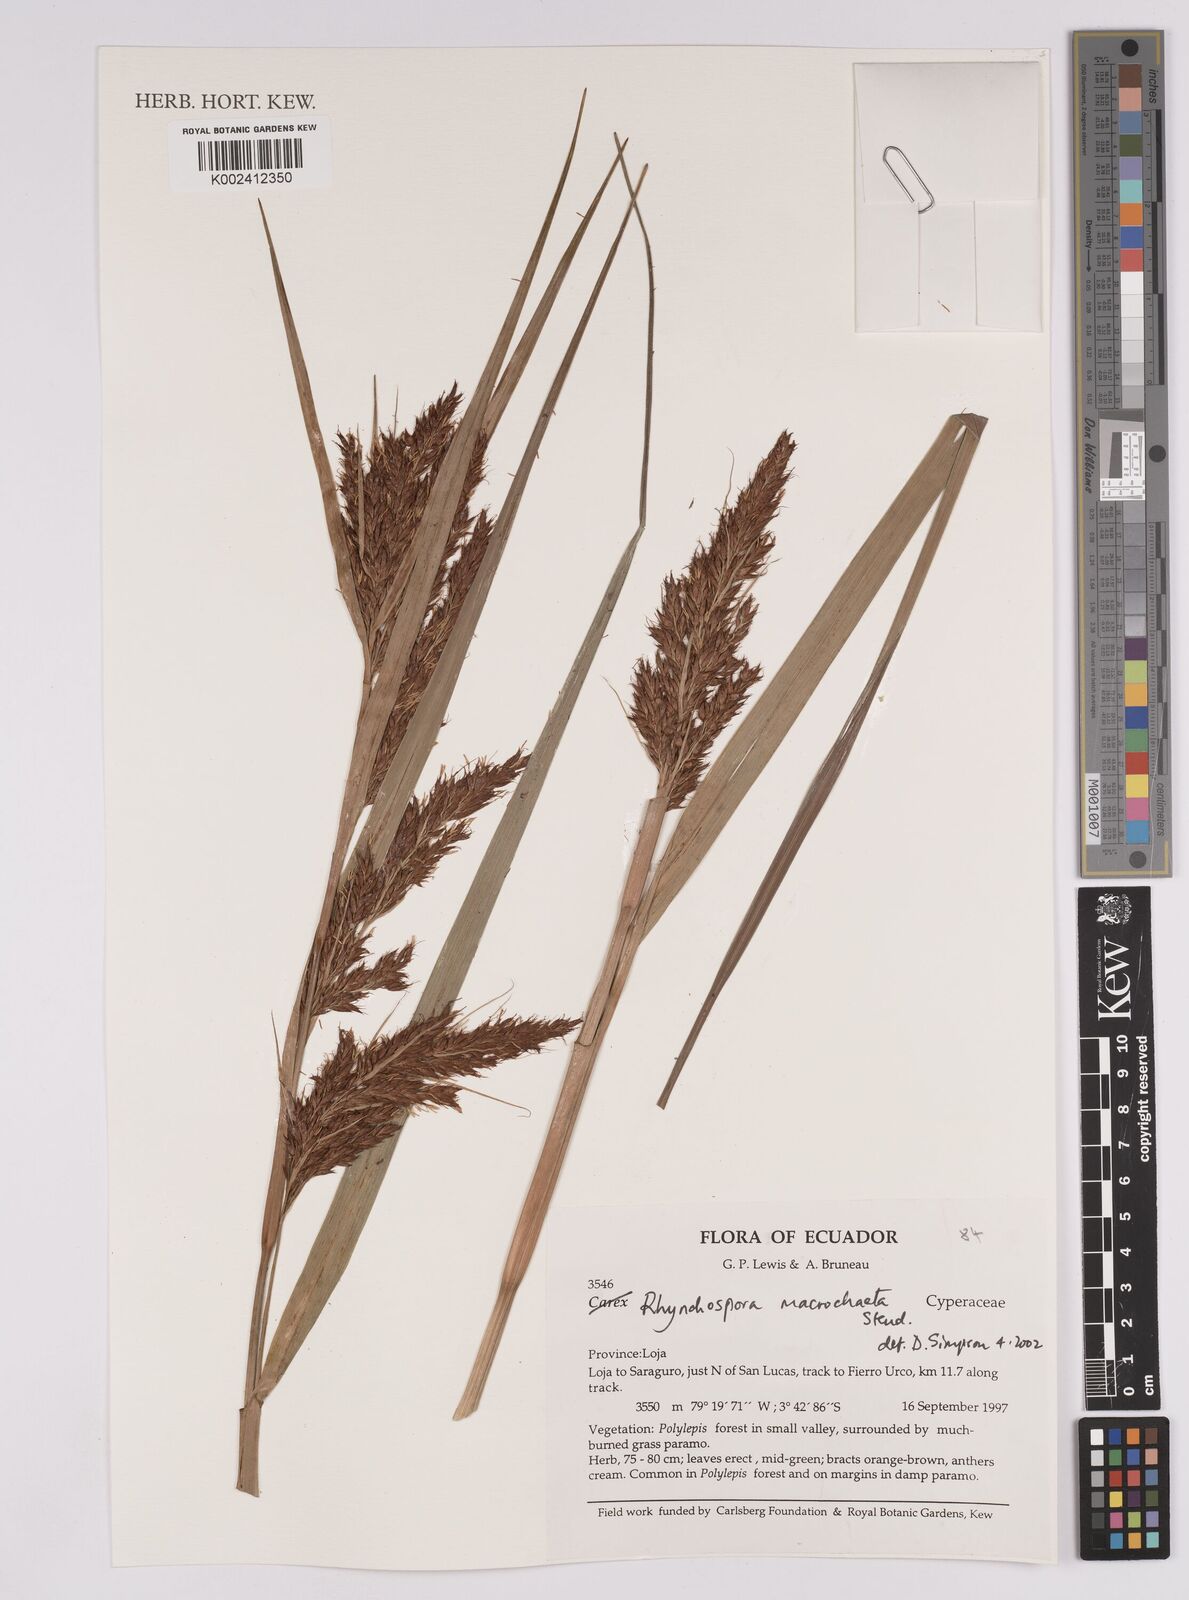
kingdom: Plantae
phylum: Tracheophyta
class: Liliopsida
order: Poales
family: Cyperaceae
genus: Rhynchospora
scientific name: Rhynchospora macrochaeta
